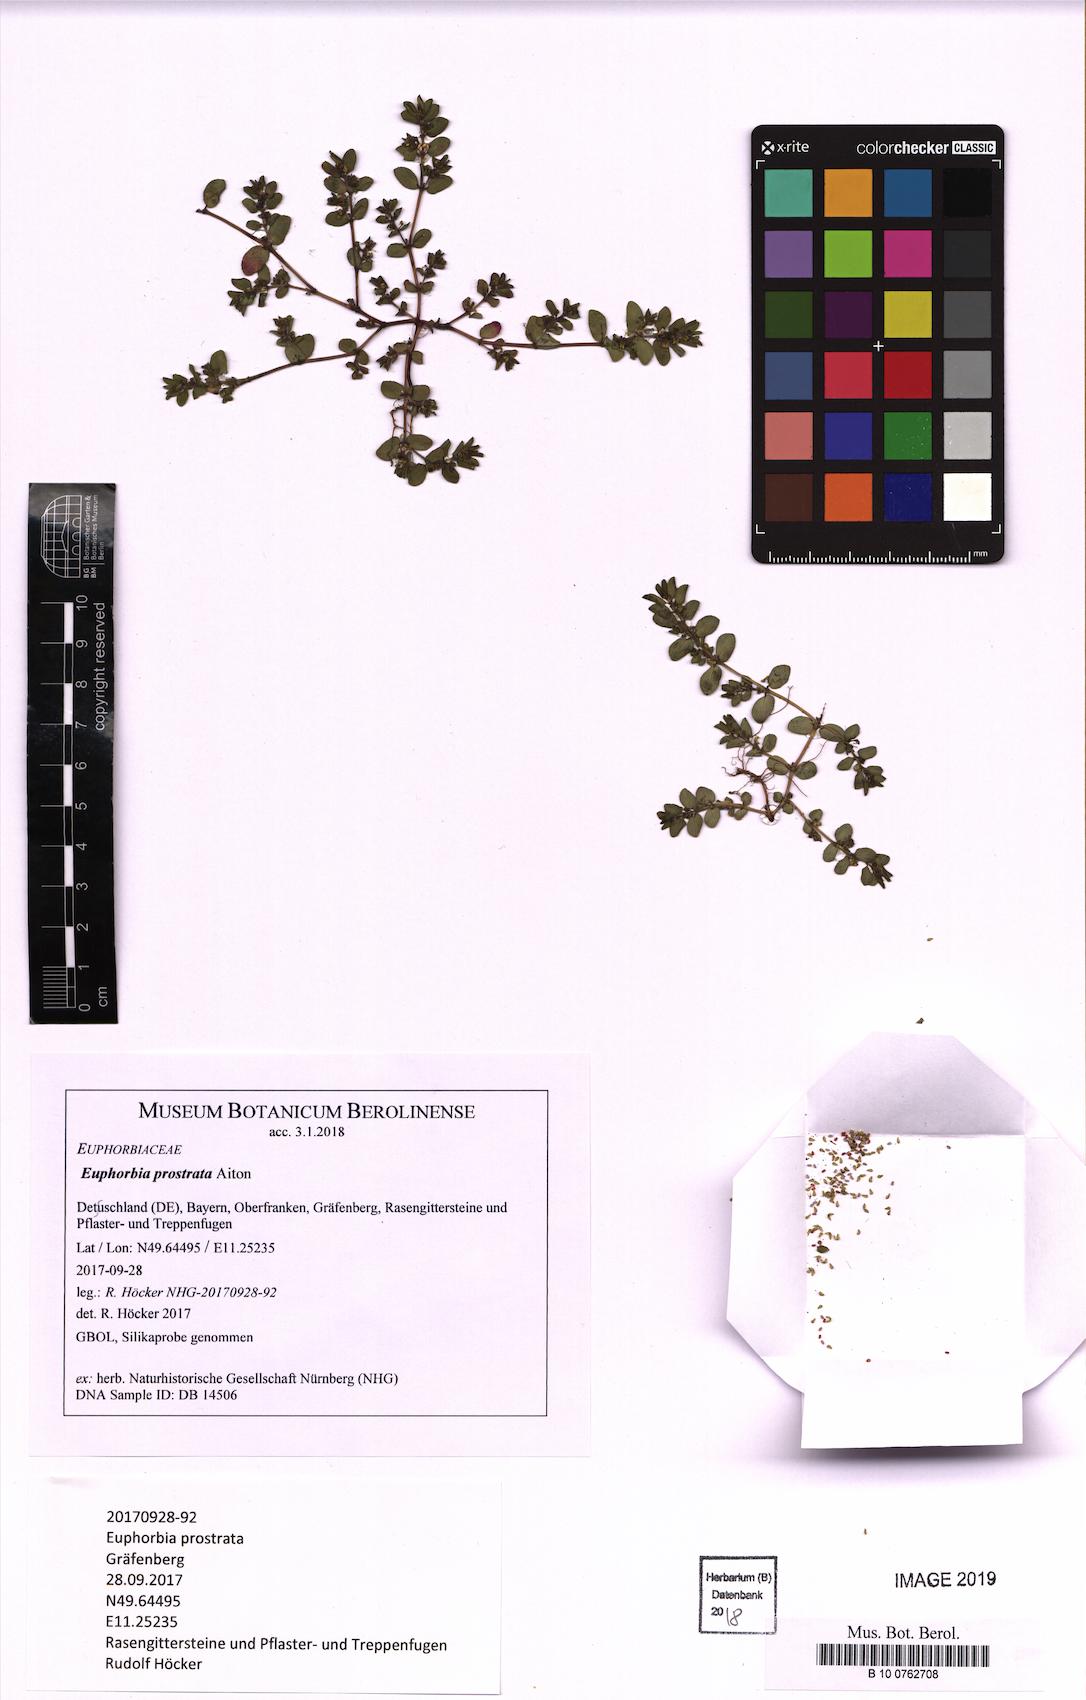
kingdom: Plantae
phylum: Tracheophyta
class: Magnoliopsida
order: Malpighiales
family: Euphorbiaceae
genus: Euphorbia
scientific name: Euphorbia prostrata
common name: Prostrate sandmat
